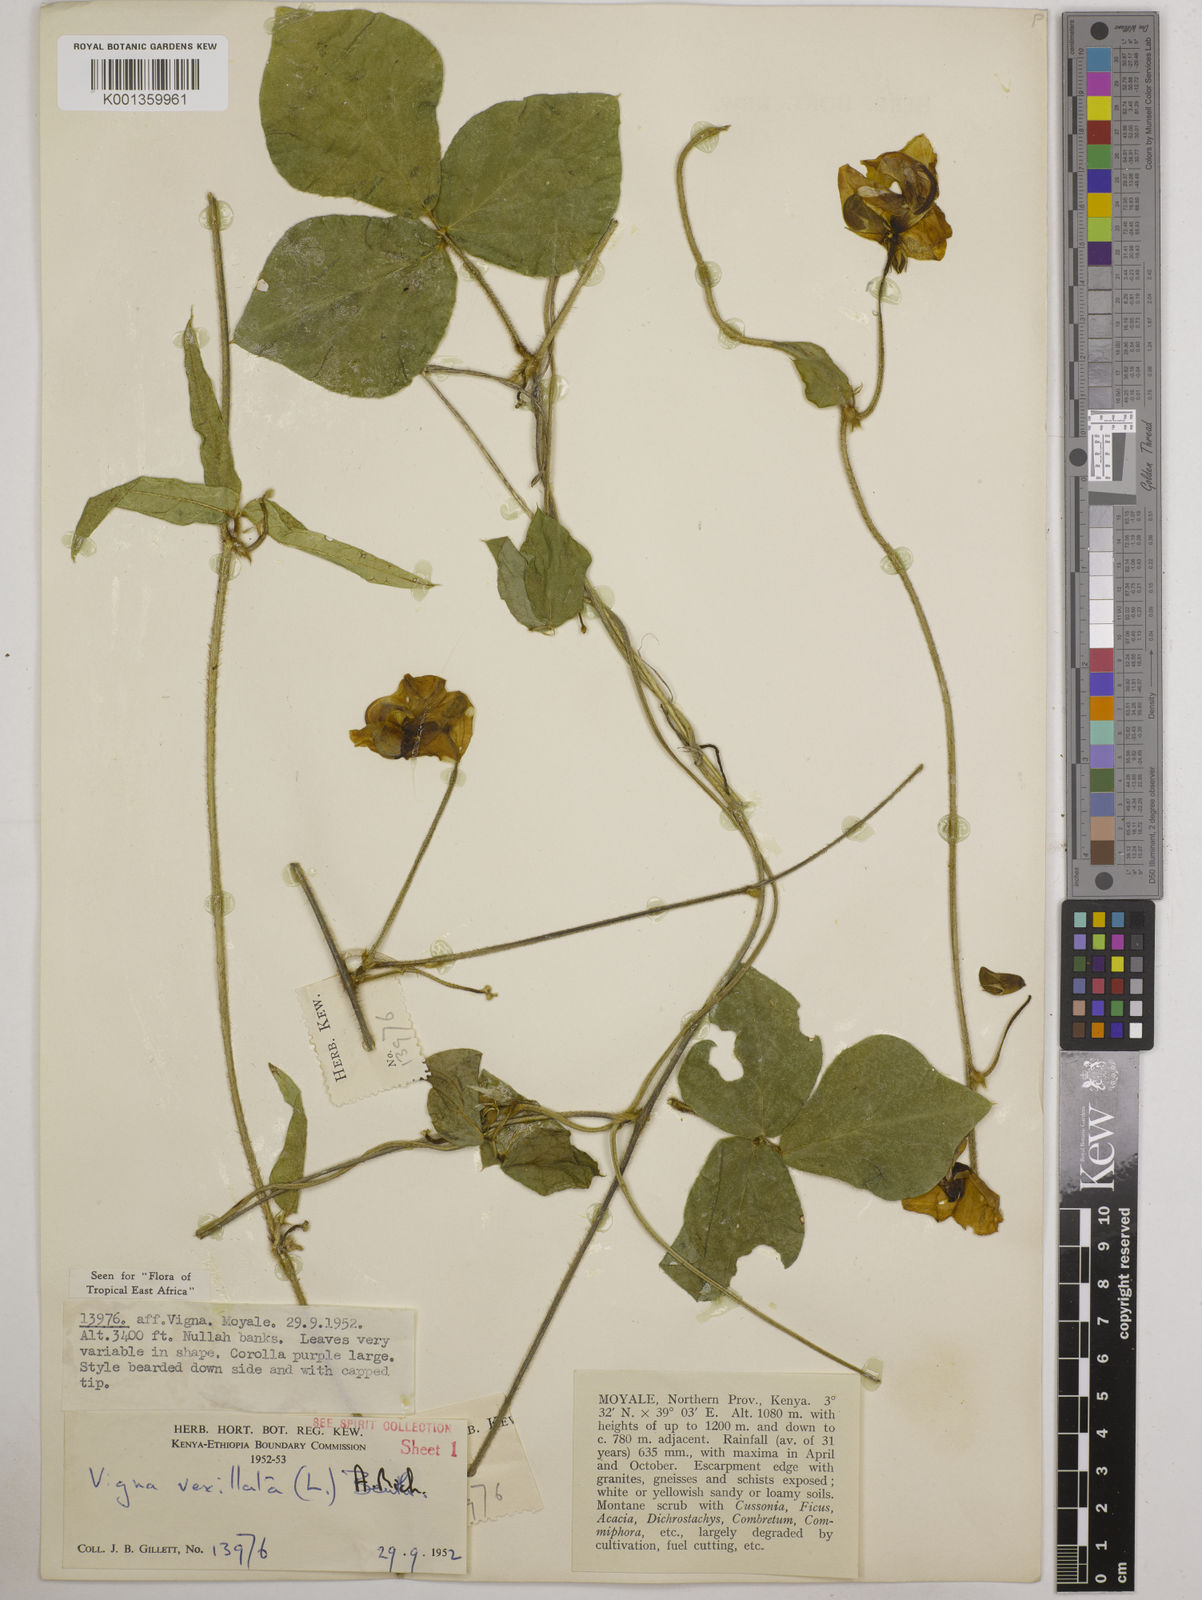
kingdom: Plantae
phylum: Tracheophyta
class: Magnoliopsida
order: Fabales
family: Fabaceae
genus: Vigna
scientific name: Vigna vexillata
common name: Zombi pea
